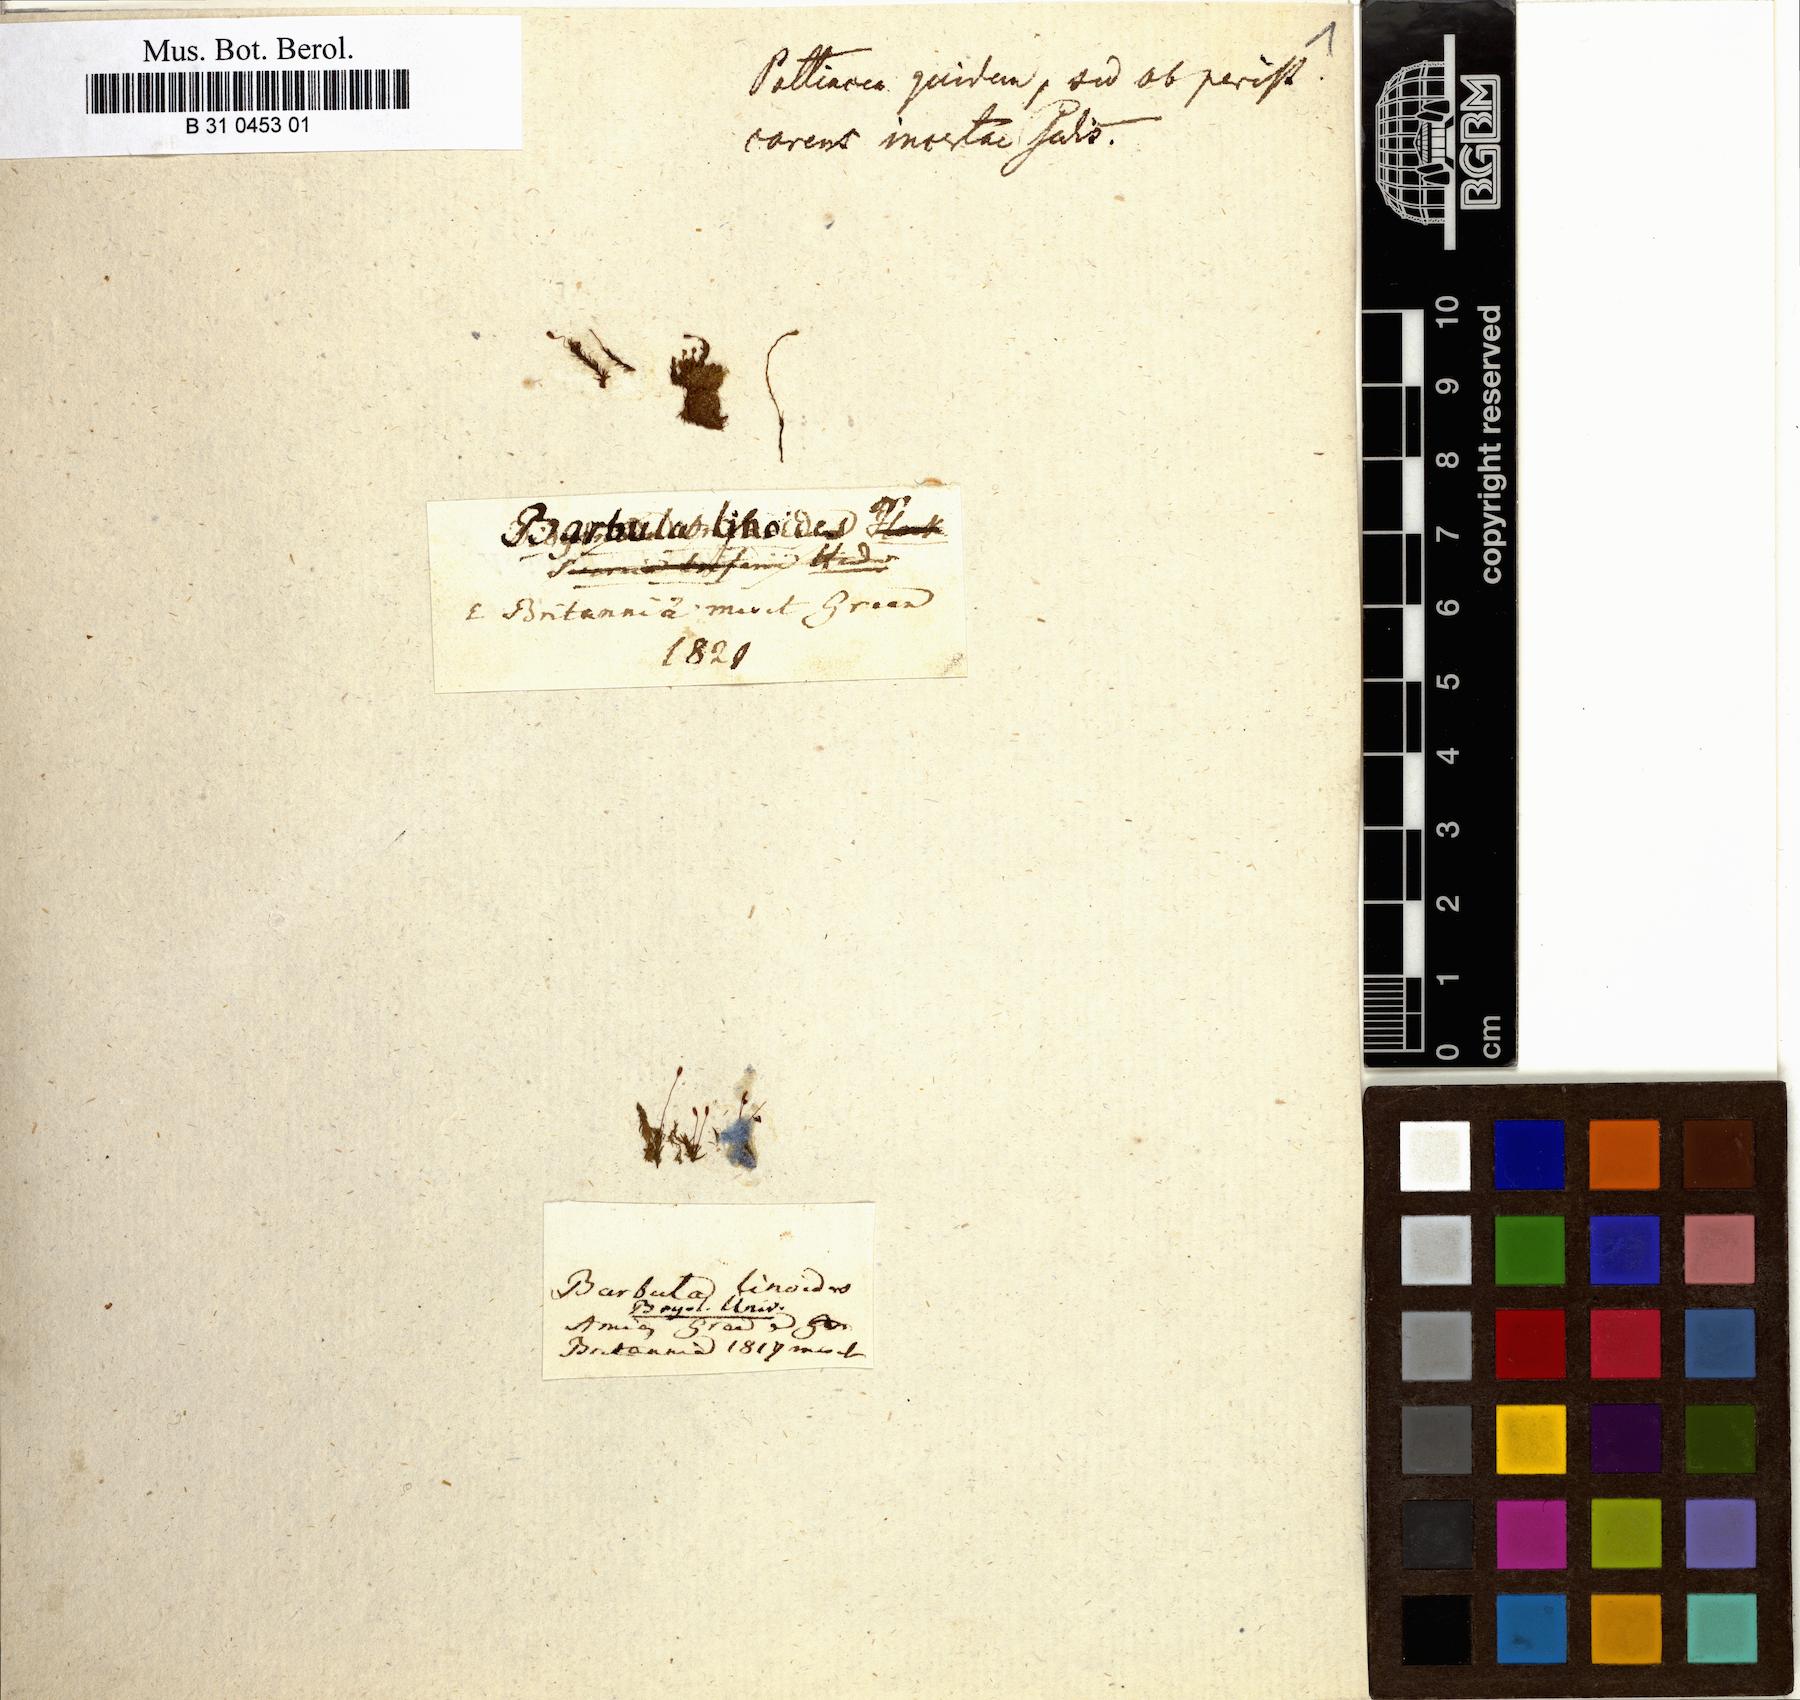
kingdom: Plantae
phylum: Bryophyta
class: Bryopsida
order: Pottiales
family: Pottiaceae
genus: Barbula
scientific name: Barbula unguiculata
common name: Prickly beard moss
